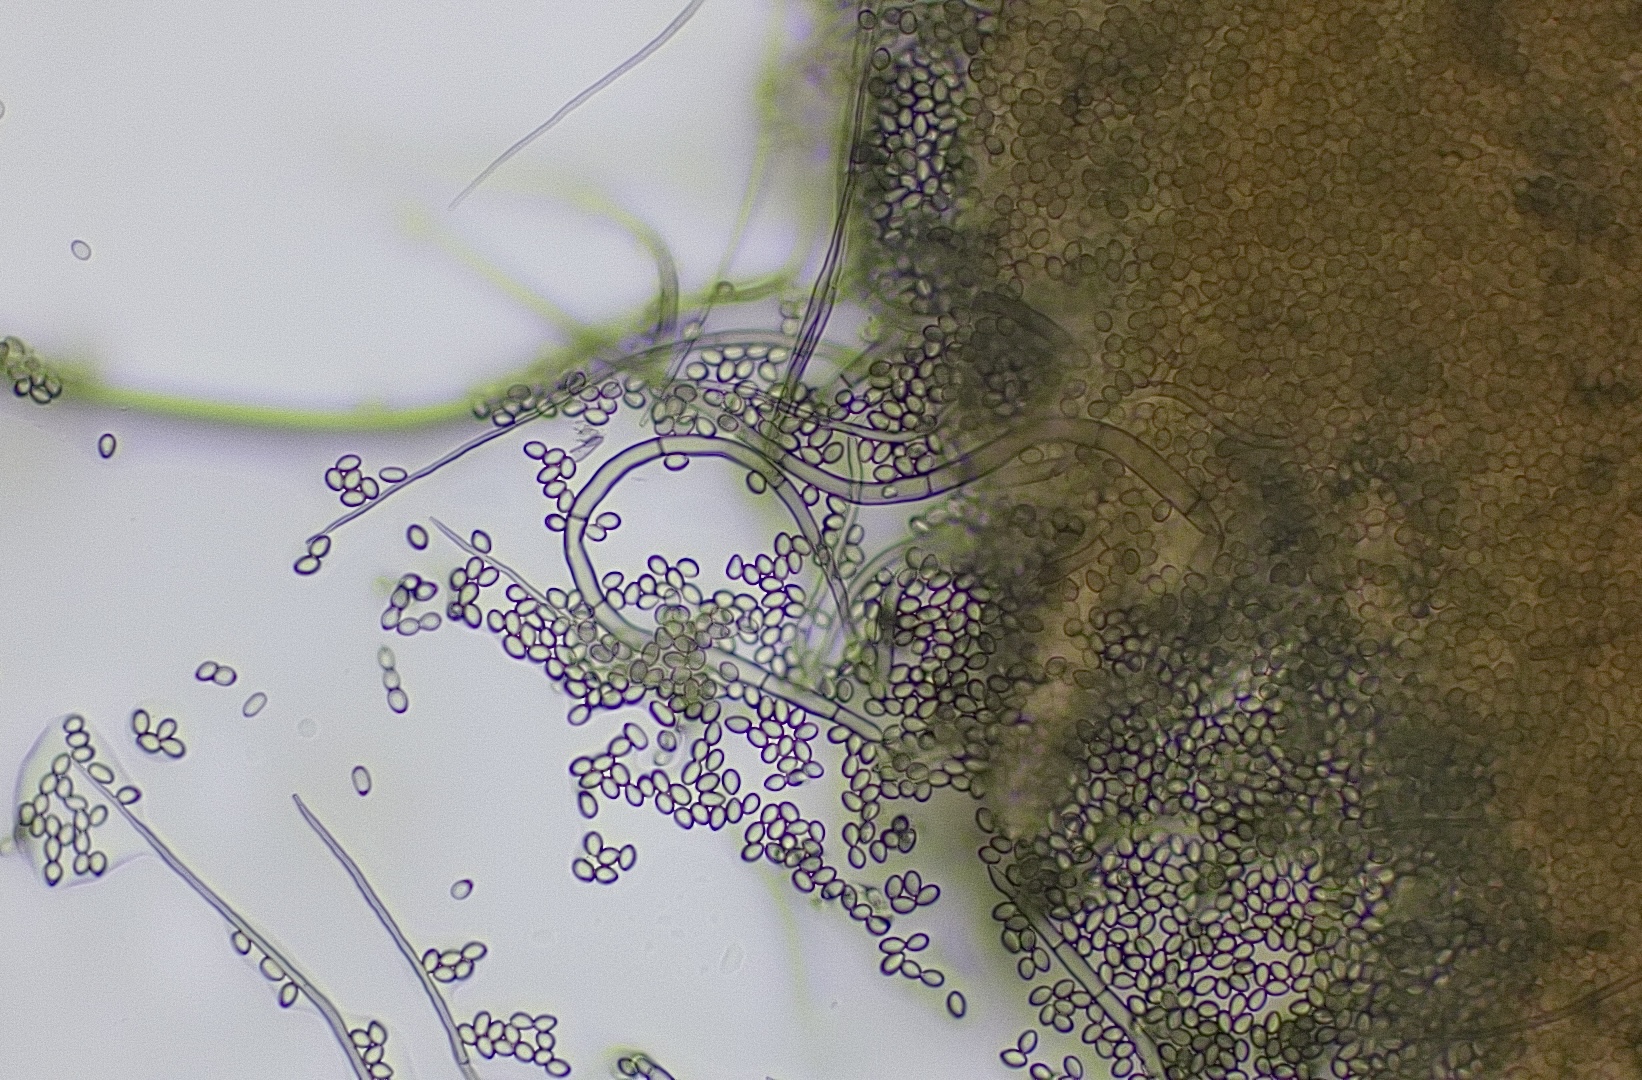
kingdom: Fungi
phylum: Ascomycota
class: Sordariomycetes
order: Microascales
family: Microascaceae
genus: Cephalotrichum
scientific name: Cephalotrichum stemonitis
